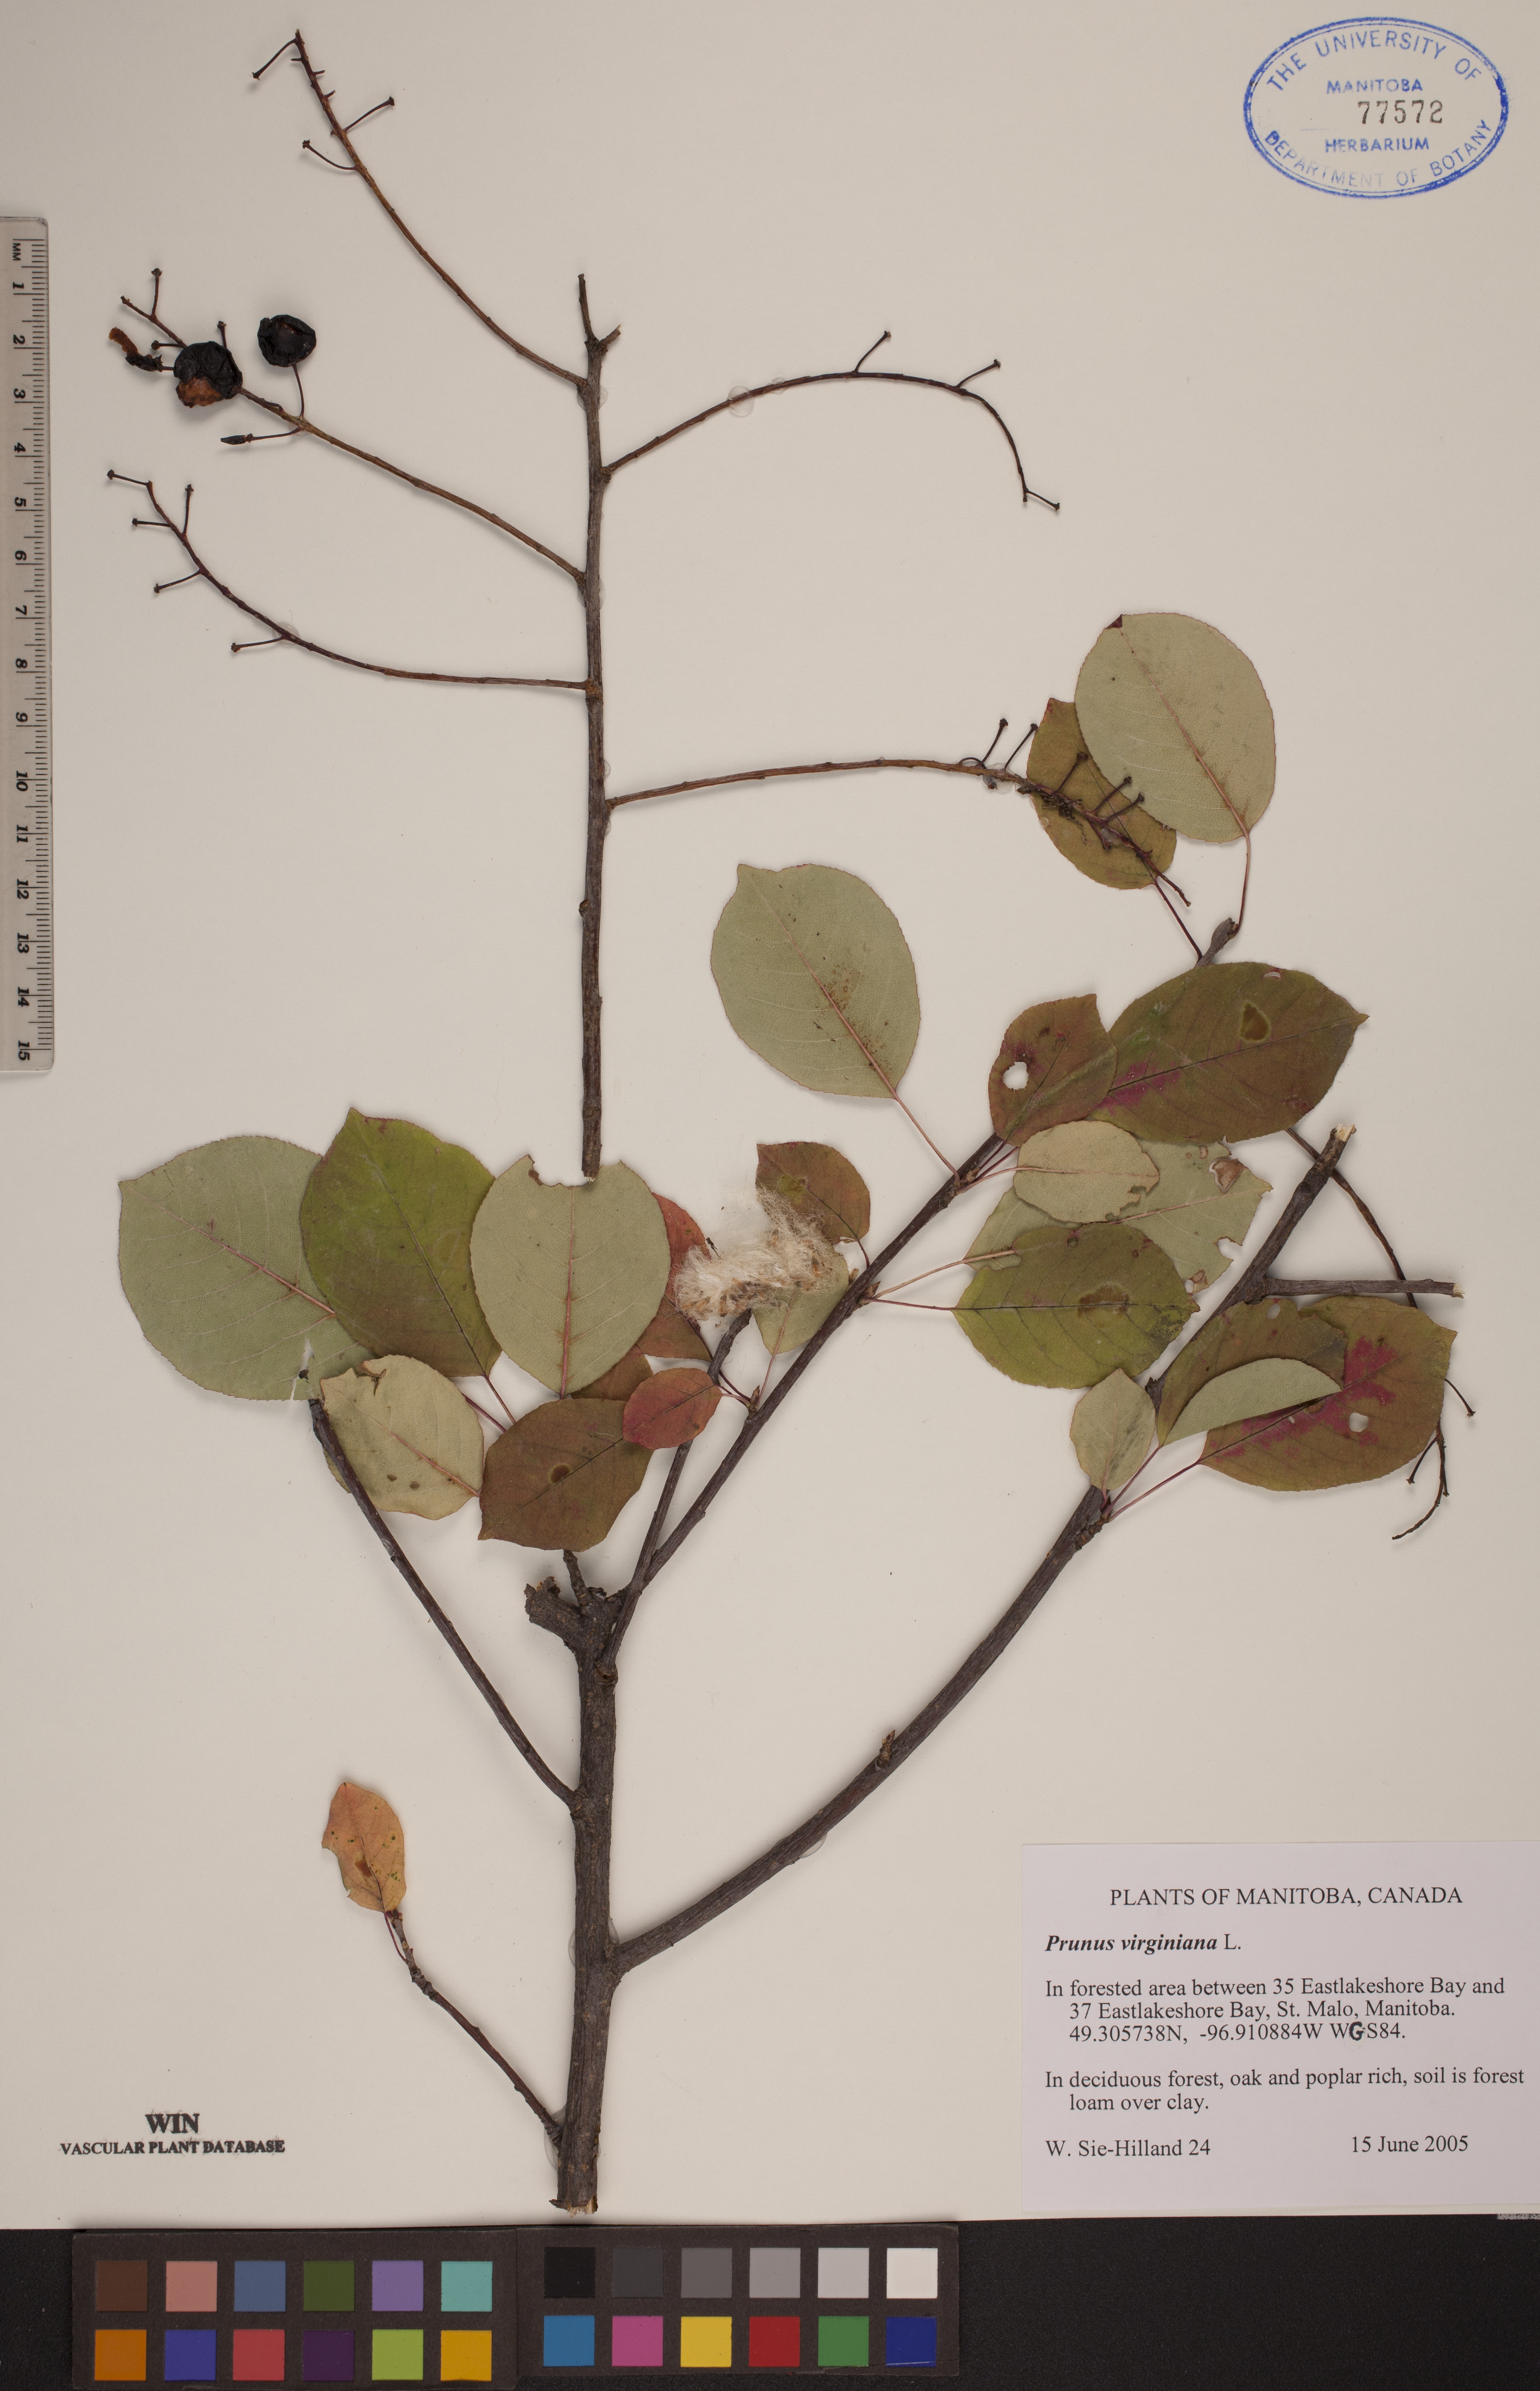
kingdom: Plantae
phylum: Tracheophyta
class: Magnoliopsida
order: Rosales
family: Rosaceae
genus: Prunus
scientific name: Prunus virginiana
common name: Chokecherry
